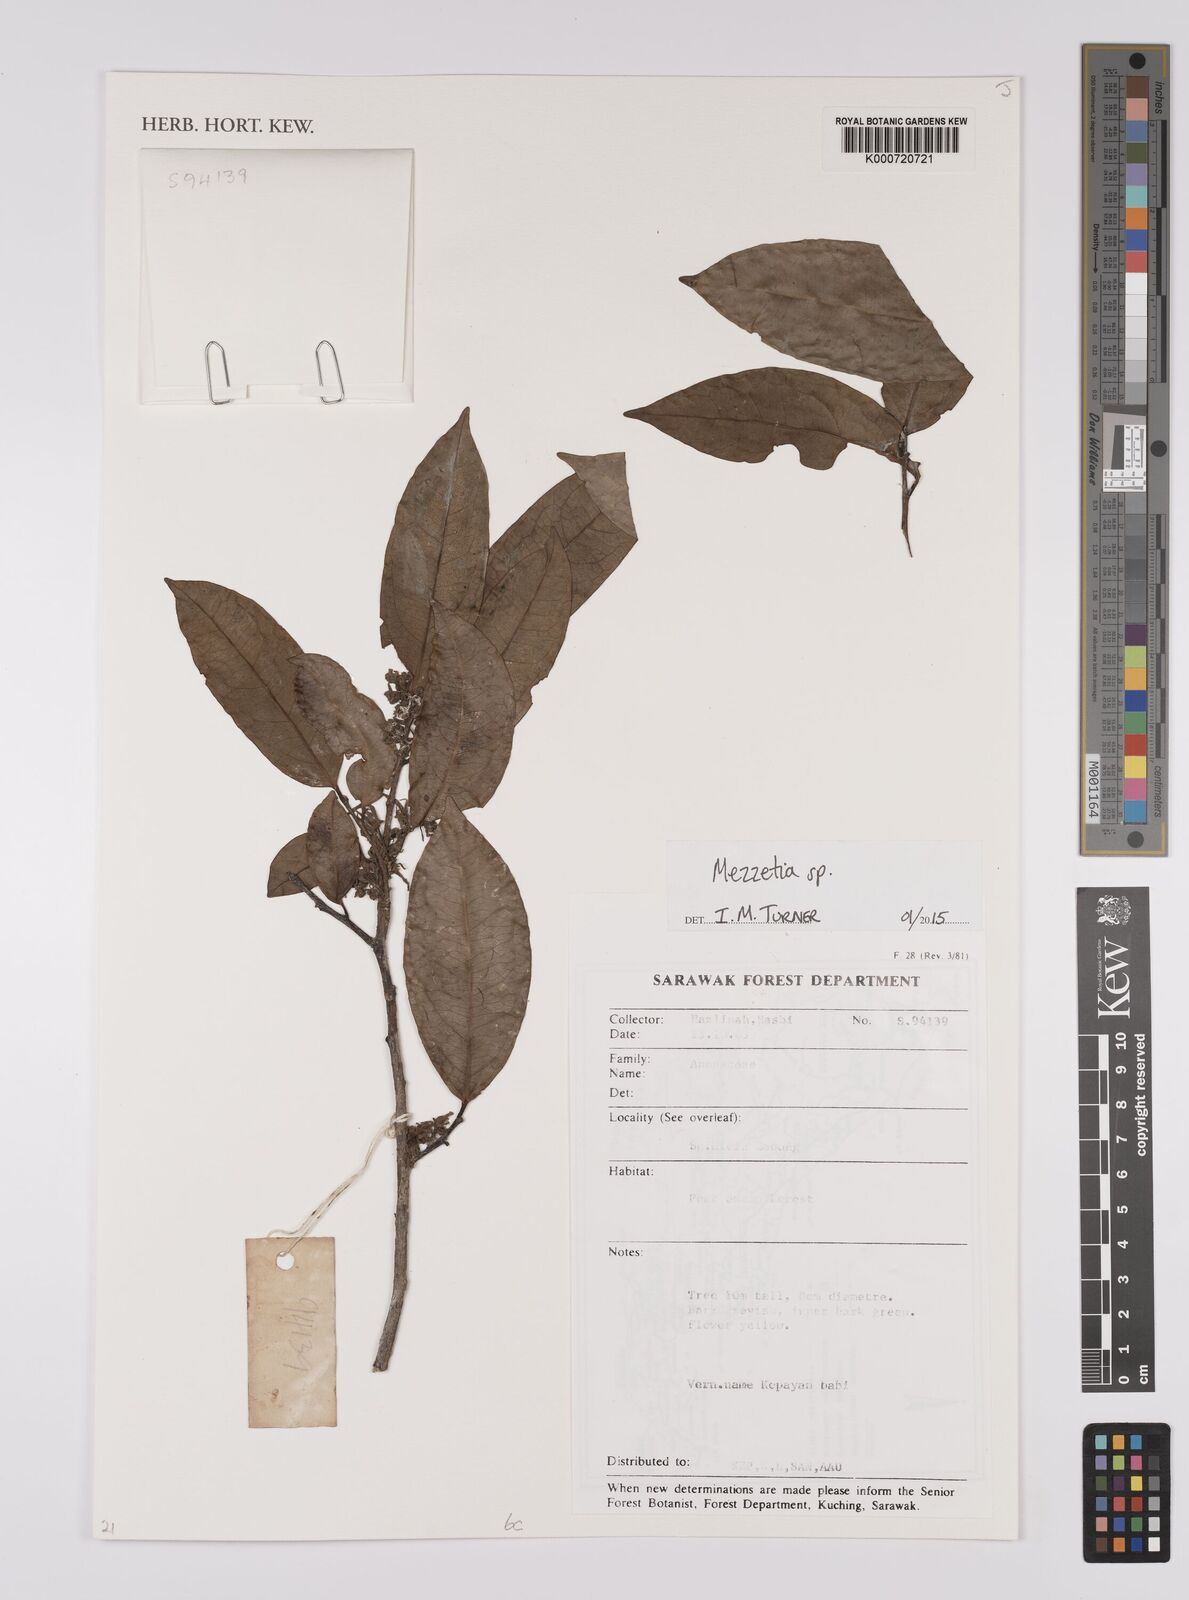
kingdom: Plantae
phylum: Tracheophyta
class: Magnoliopsida
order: Magnoliales
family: Annonaceae
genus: Mezzettia
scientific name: Mezzettia
